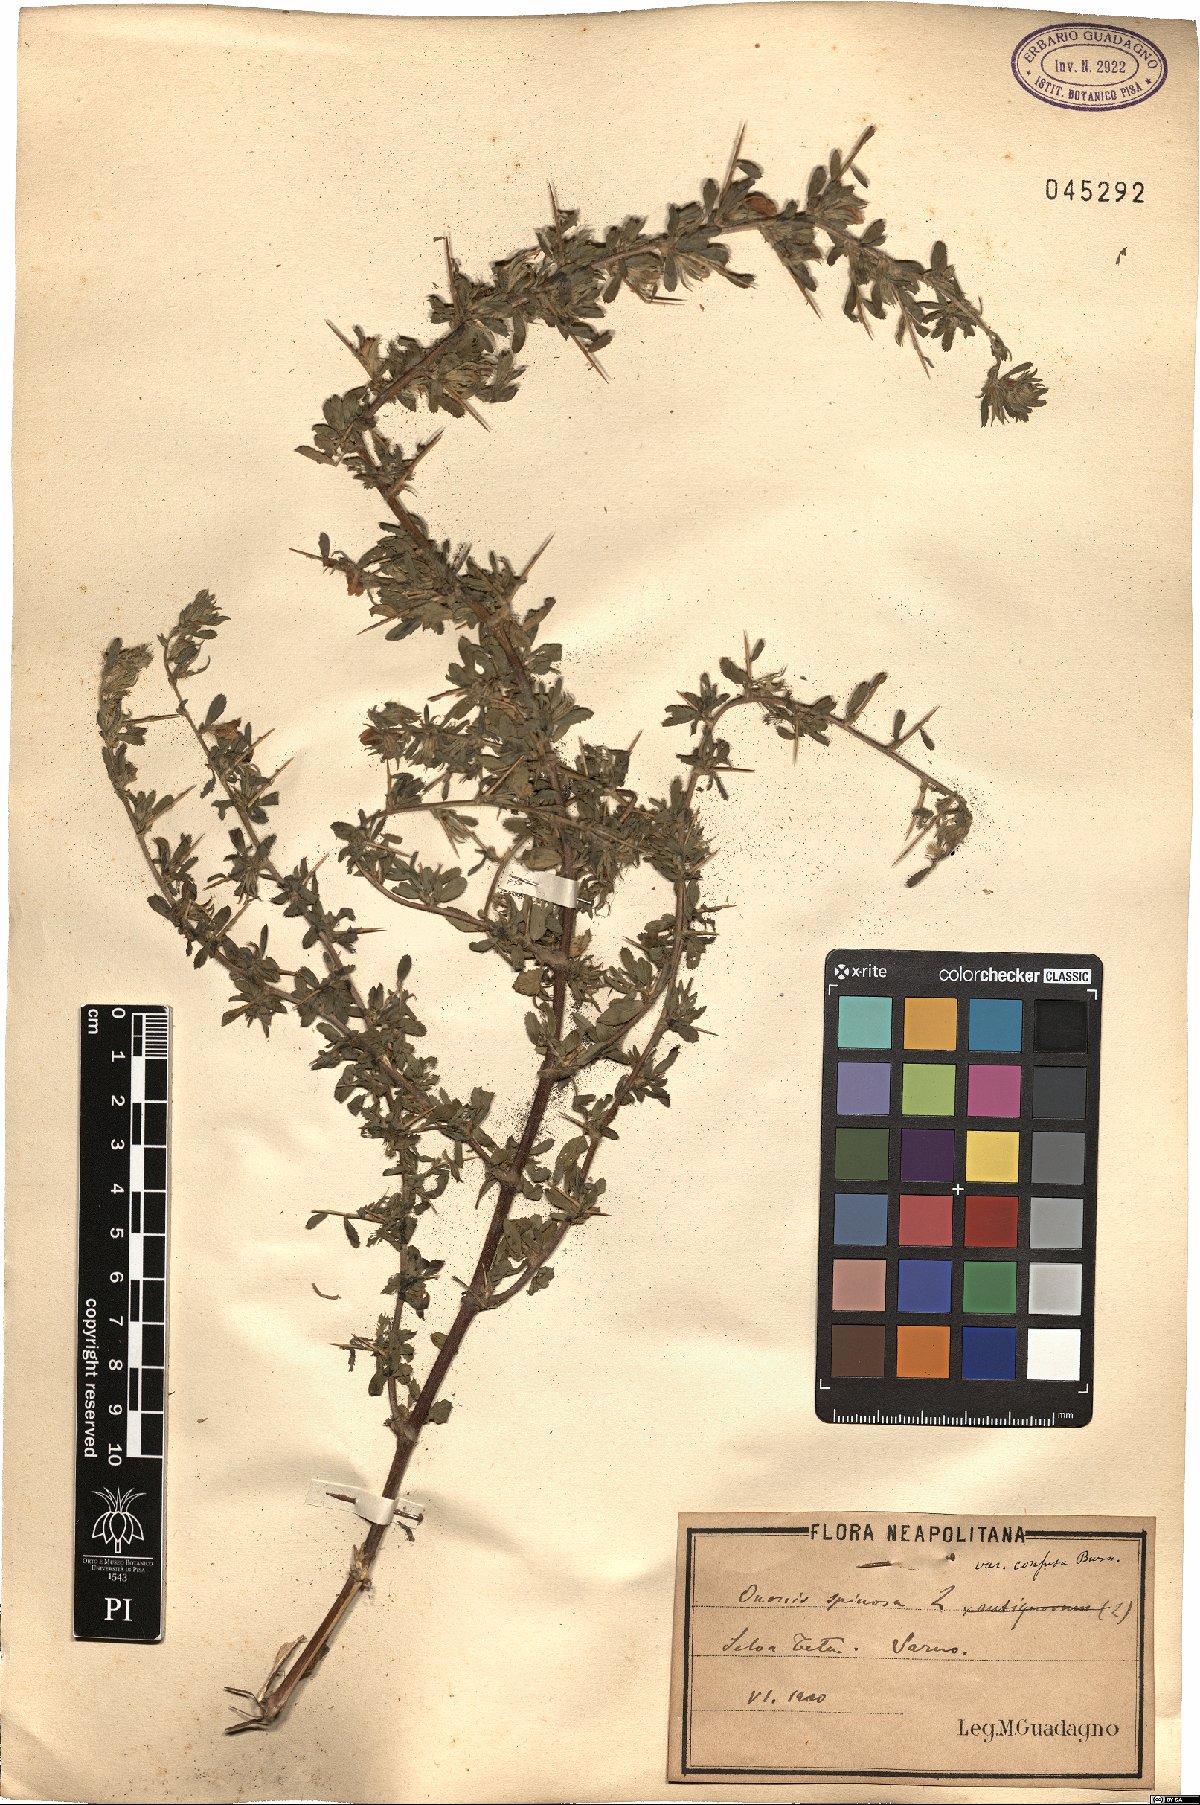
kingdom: Plantae
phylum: Tracheophyta
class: Magnoliopsida
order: Fabales
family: Fabaceae
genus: Ononis
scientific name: Ononis spinosa
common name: Spiny restharrow
